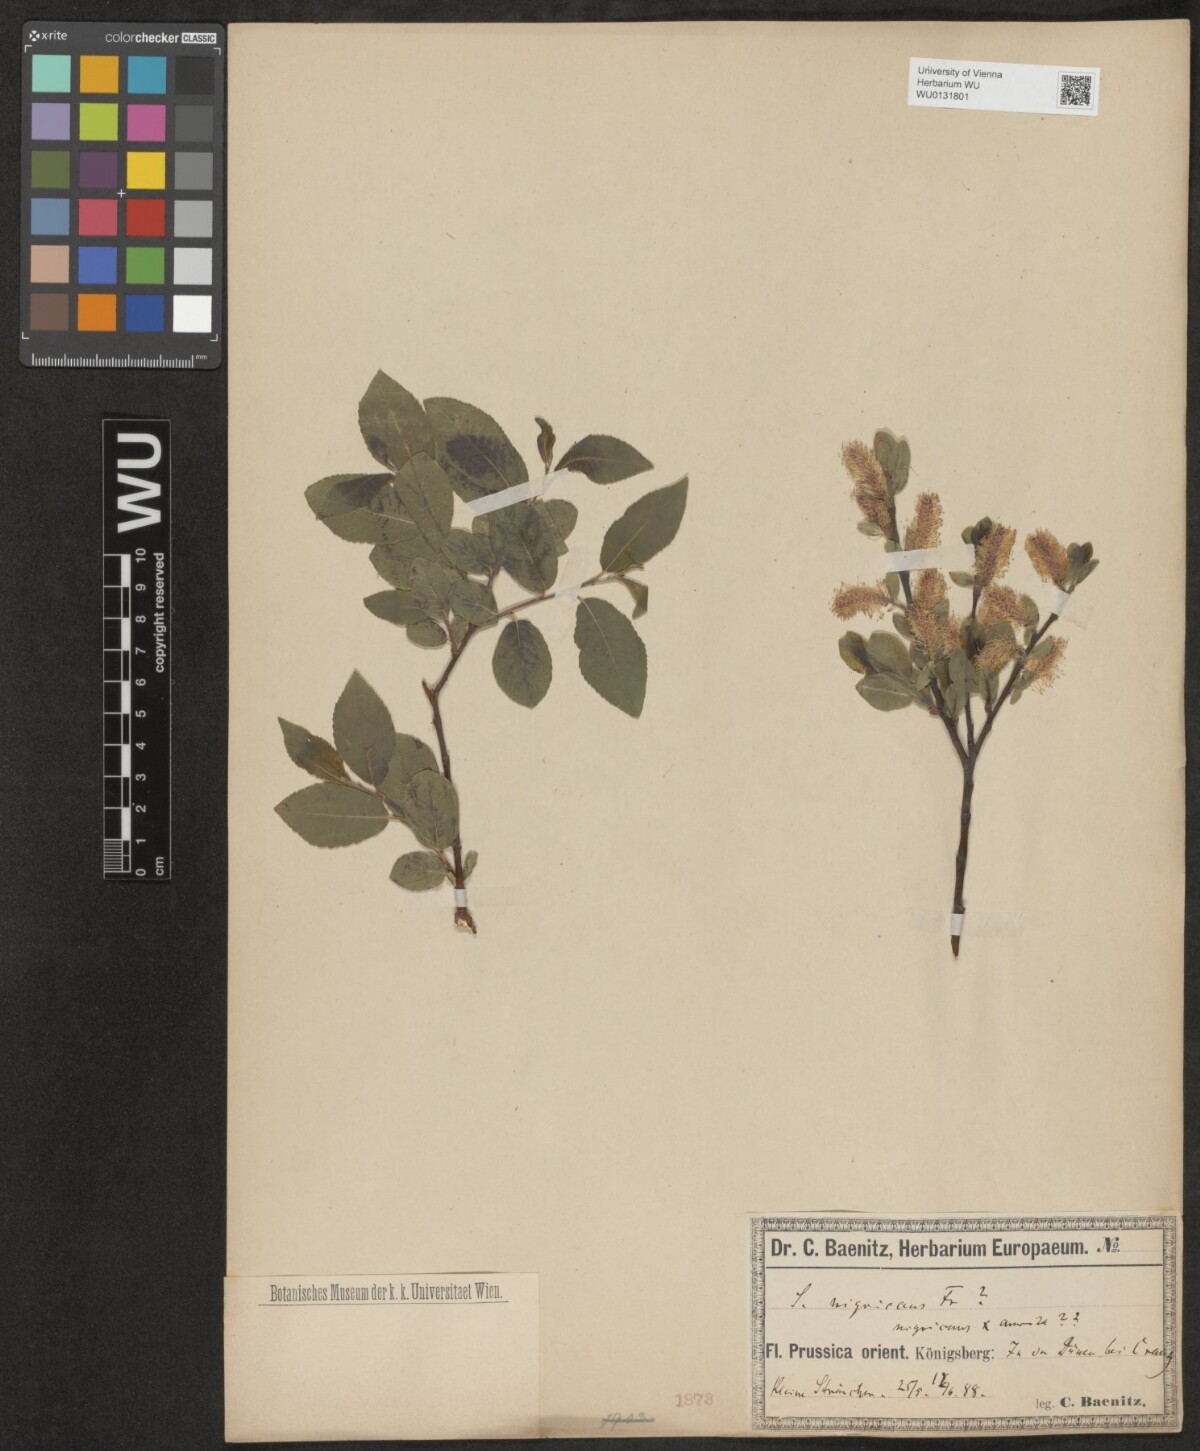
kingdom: Plantae
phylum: Tracheophyta
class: Magnoliopsida
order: Malpighiales
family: Salicaceae
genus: Salix
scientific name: Salix myrsinifolia
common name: Dark-leaved willow
